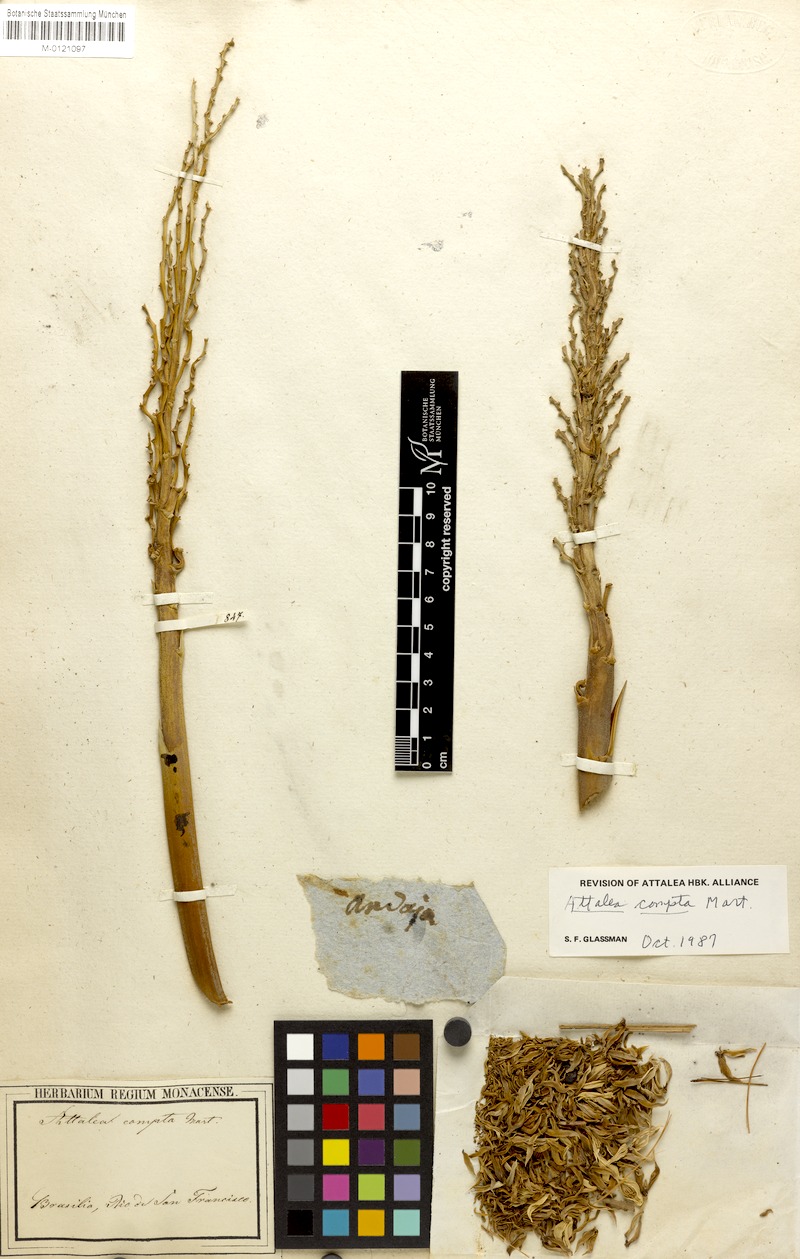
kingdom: Plantae
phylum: Tracheophyta
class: Liliopsida
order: Arecales
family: Arecaceae
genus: Attalea
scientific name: Attalea compta
